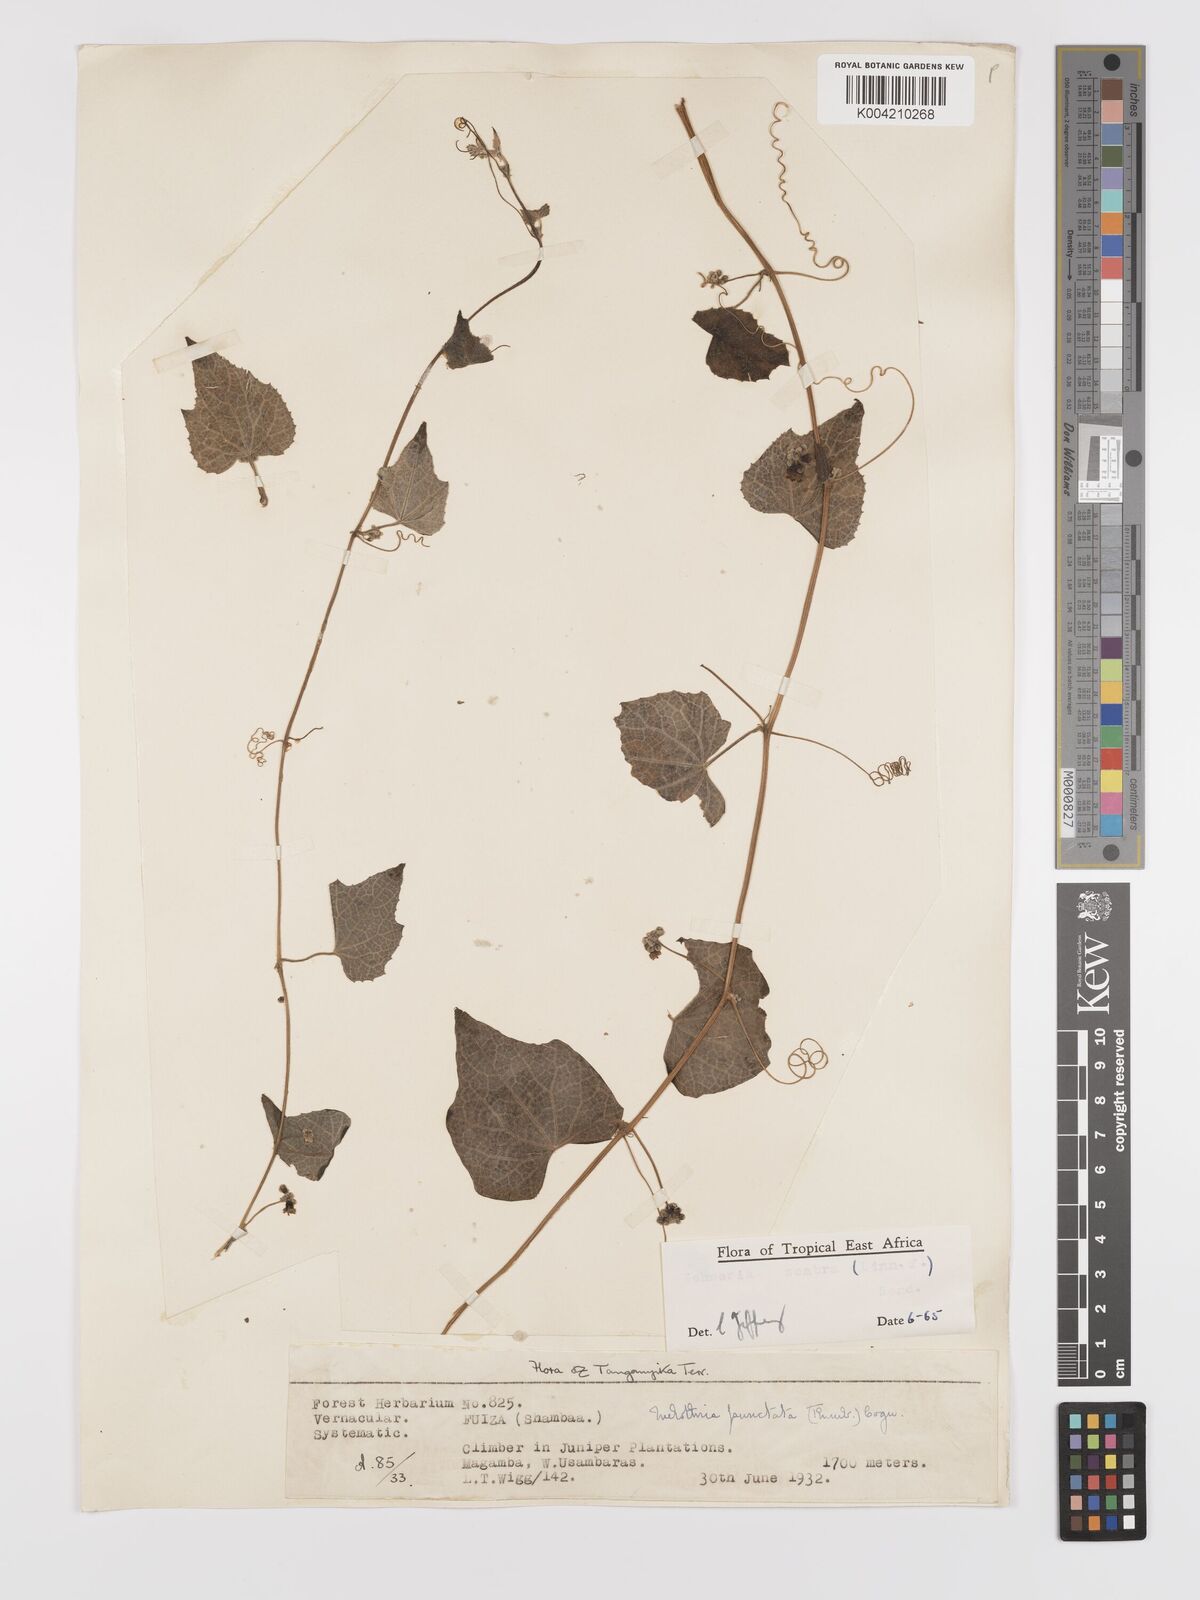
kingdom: Plantae
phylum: Tracheophyta
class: Magnoliopsida
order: Cucurbitales
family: Cucurbitaceae
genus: Zehneria
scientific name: Zehneria scabra
